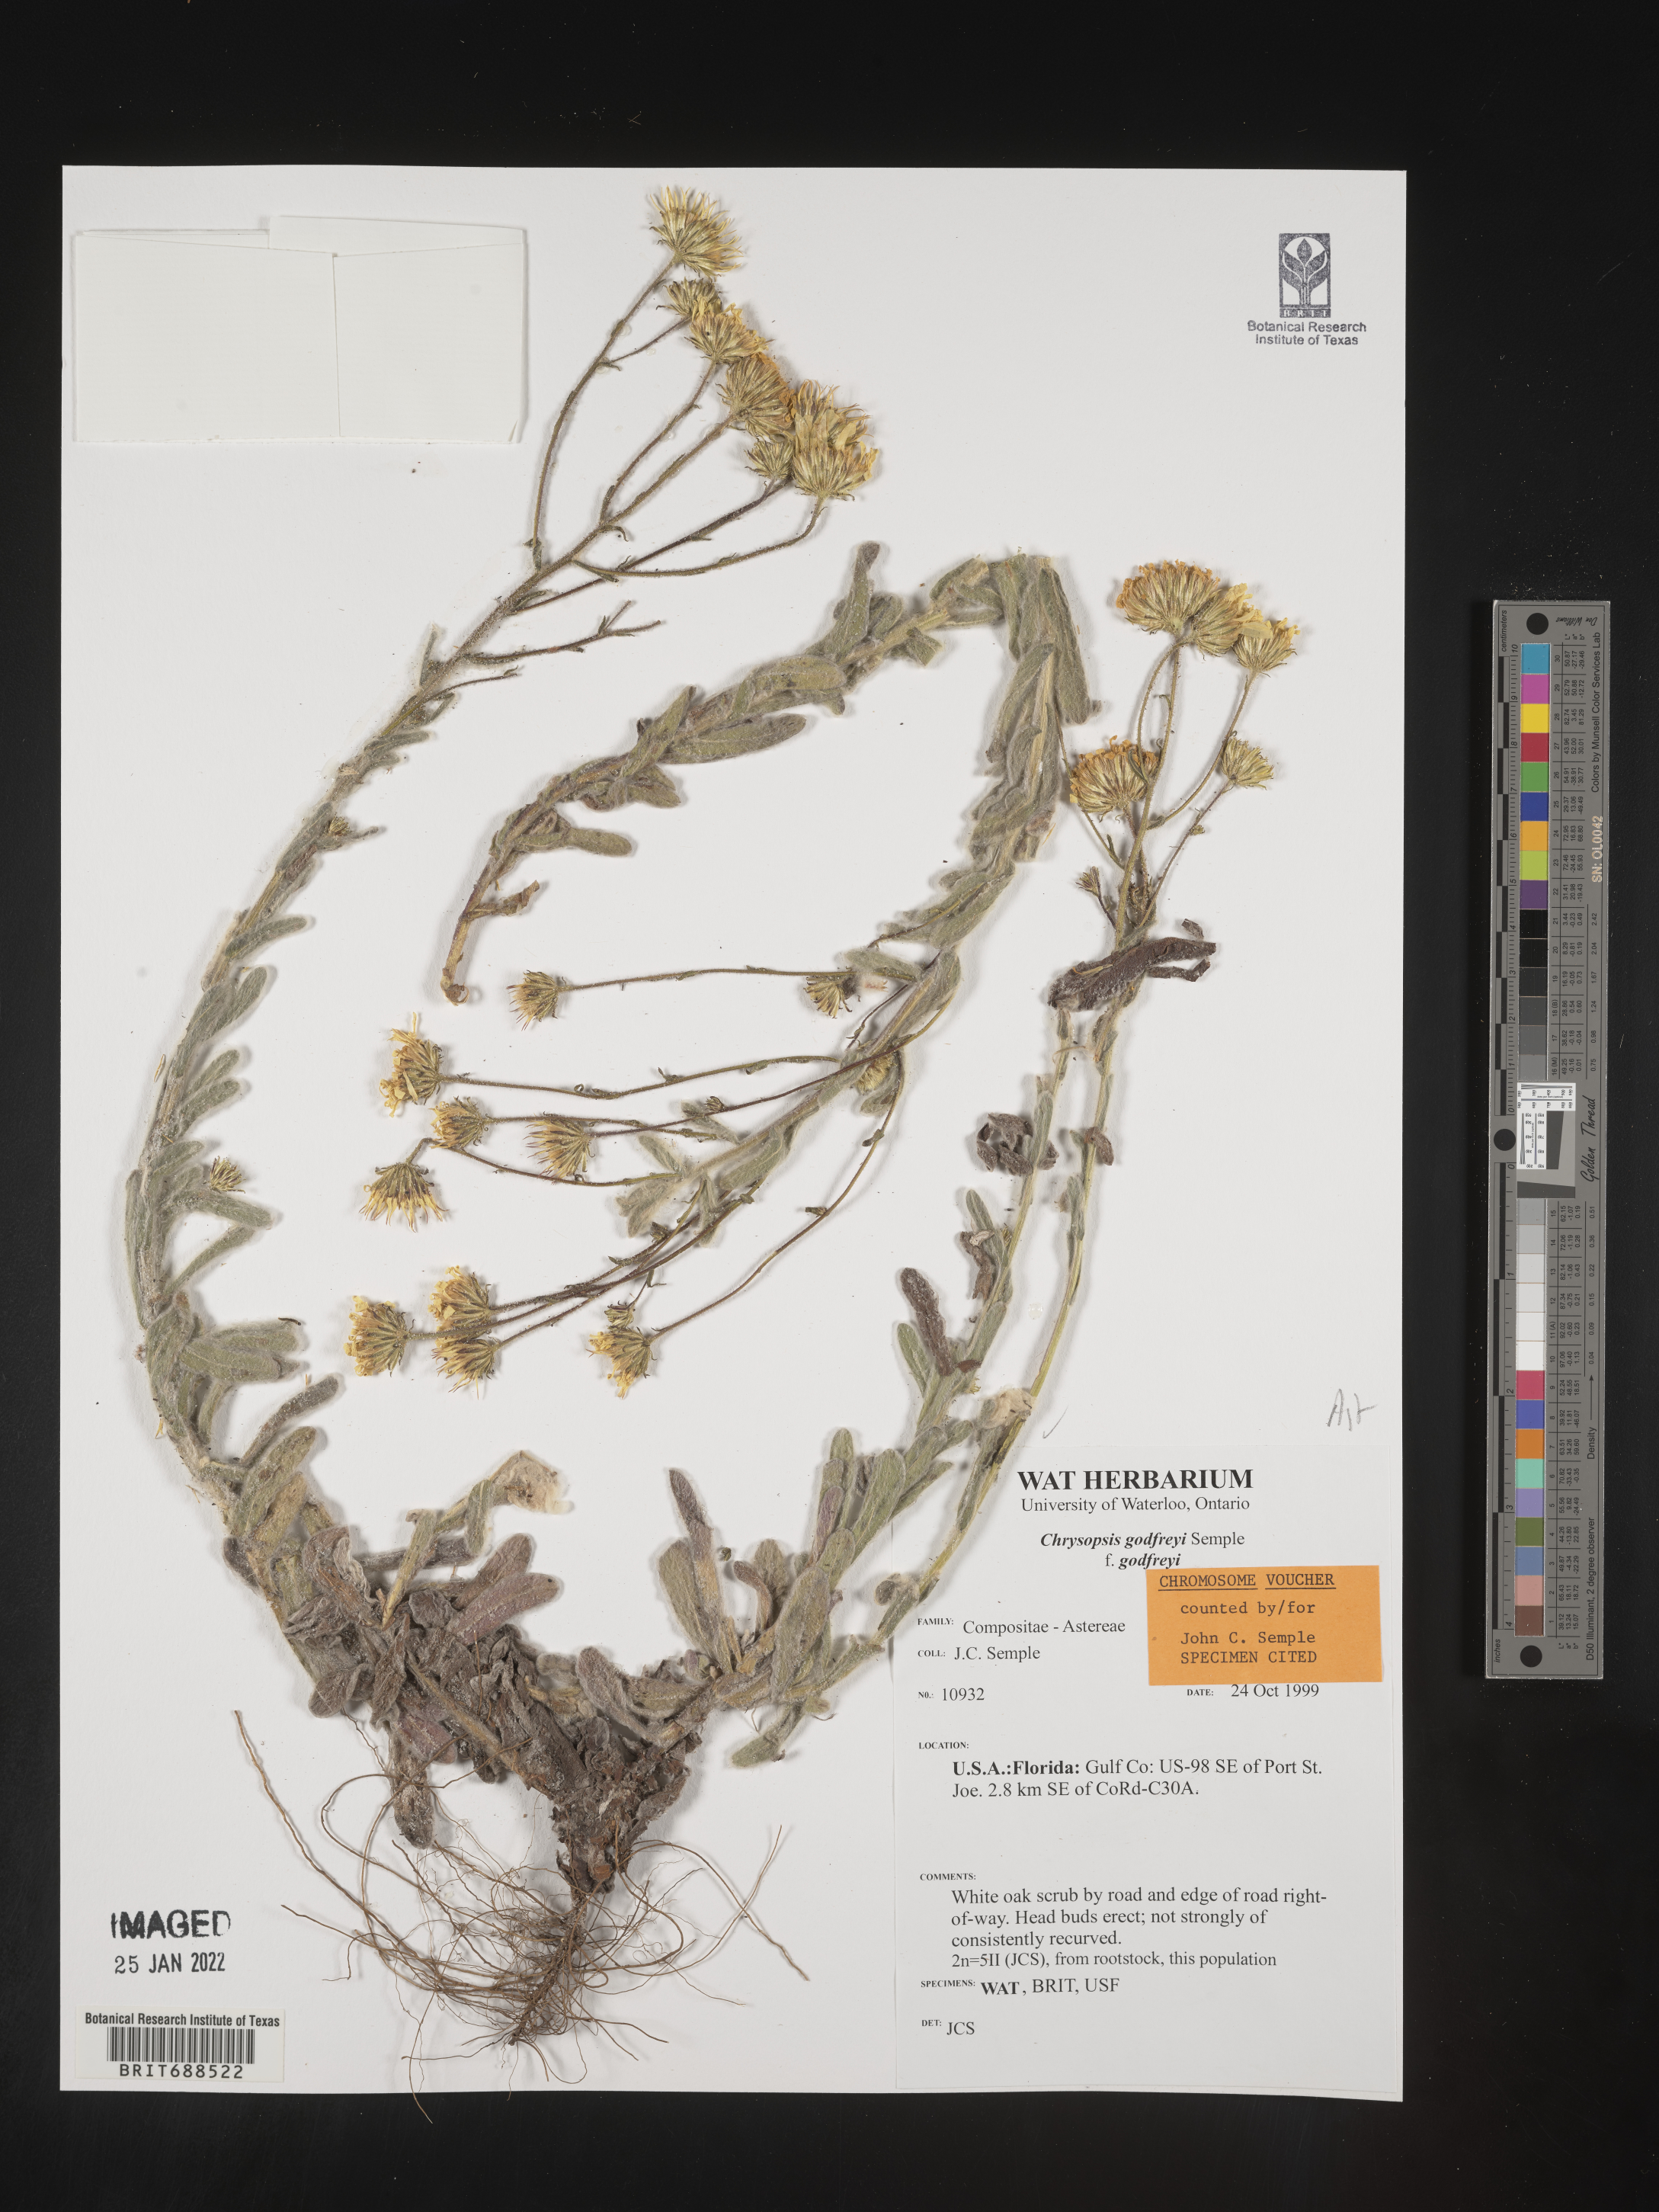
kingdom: Plantae
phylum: Tracheophyta
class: Magnoliopsida
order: Asterales
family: Asteraceae
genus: Chrysopsis
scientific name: Chrysopsis godfreyi
